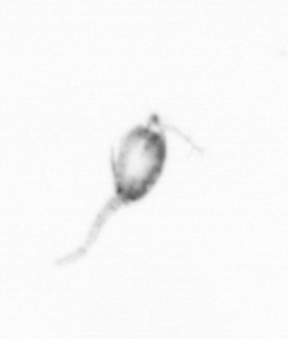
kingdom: Animalia
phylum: Arthropoda
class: Copepoda
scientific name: Copepoda
